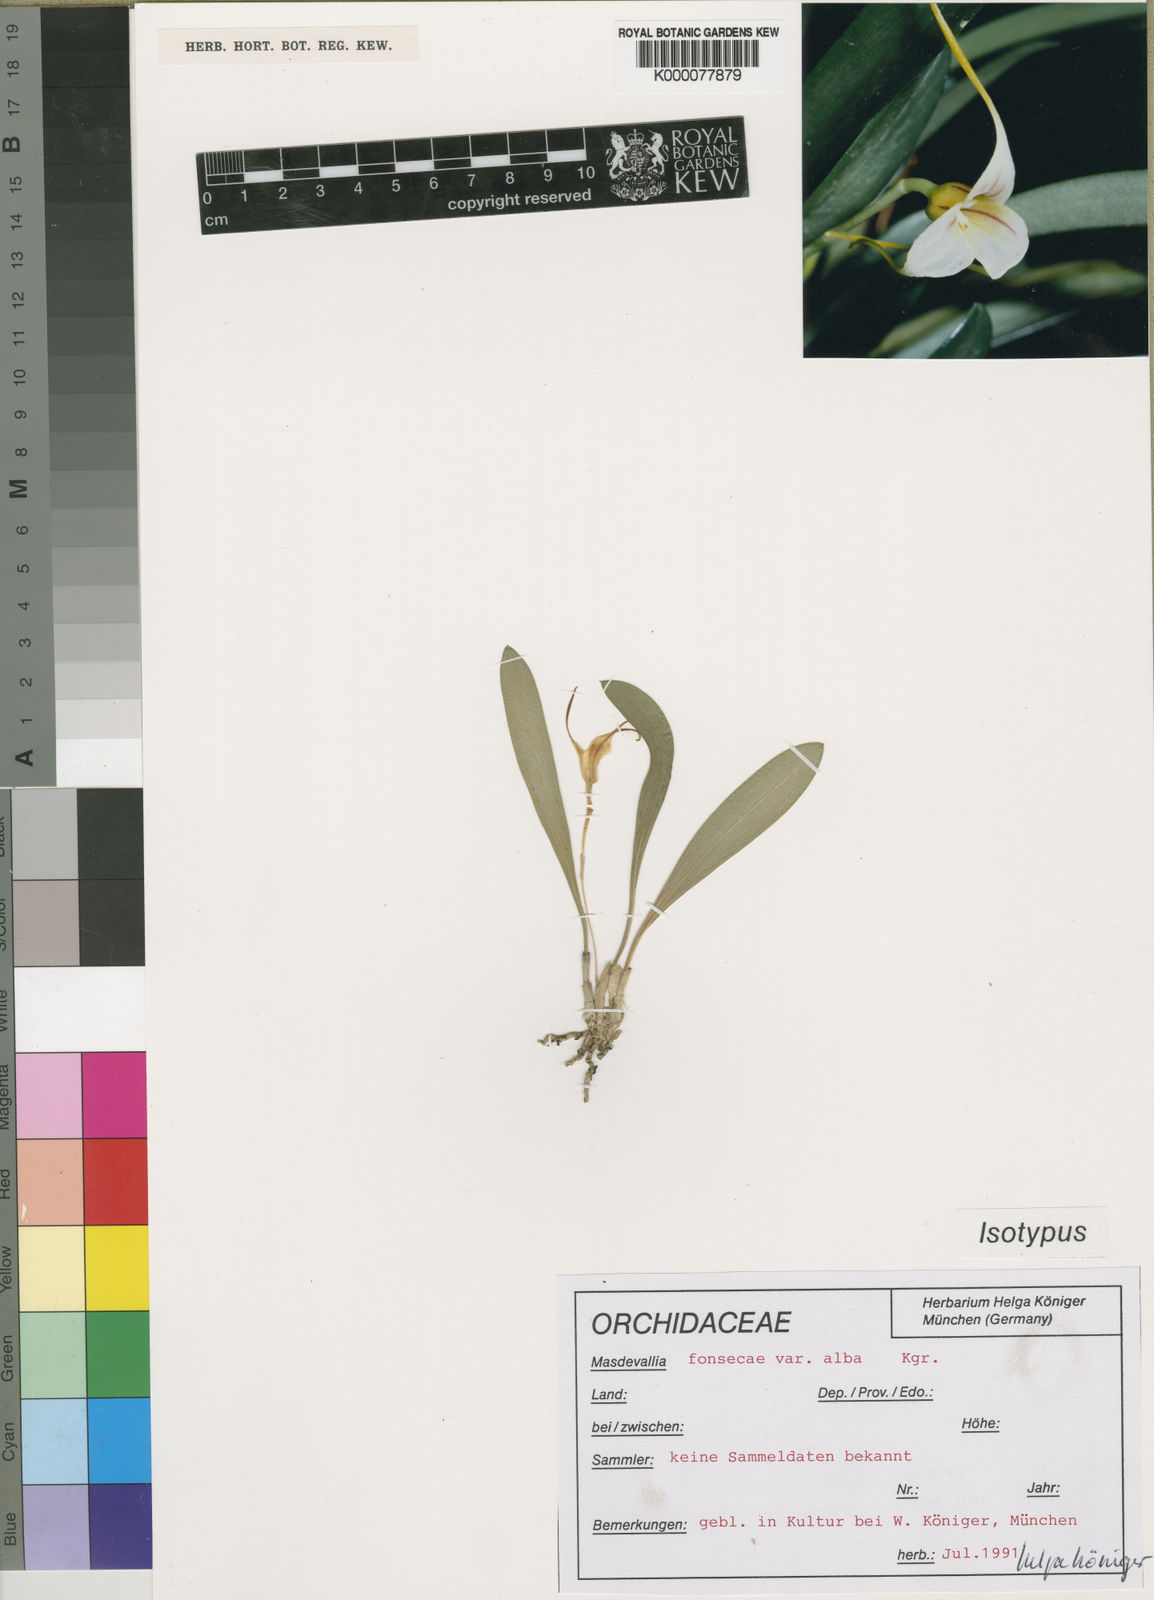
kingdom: Plantae
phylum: Tracheophyta
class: Liliopsida
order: Asparagales
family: Orchidaceae
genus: Masdevallia
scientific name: Masdevallia
